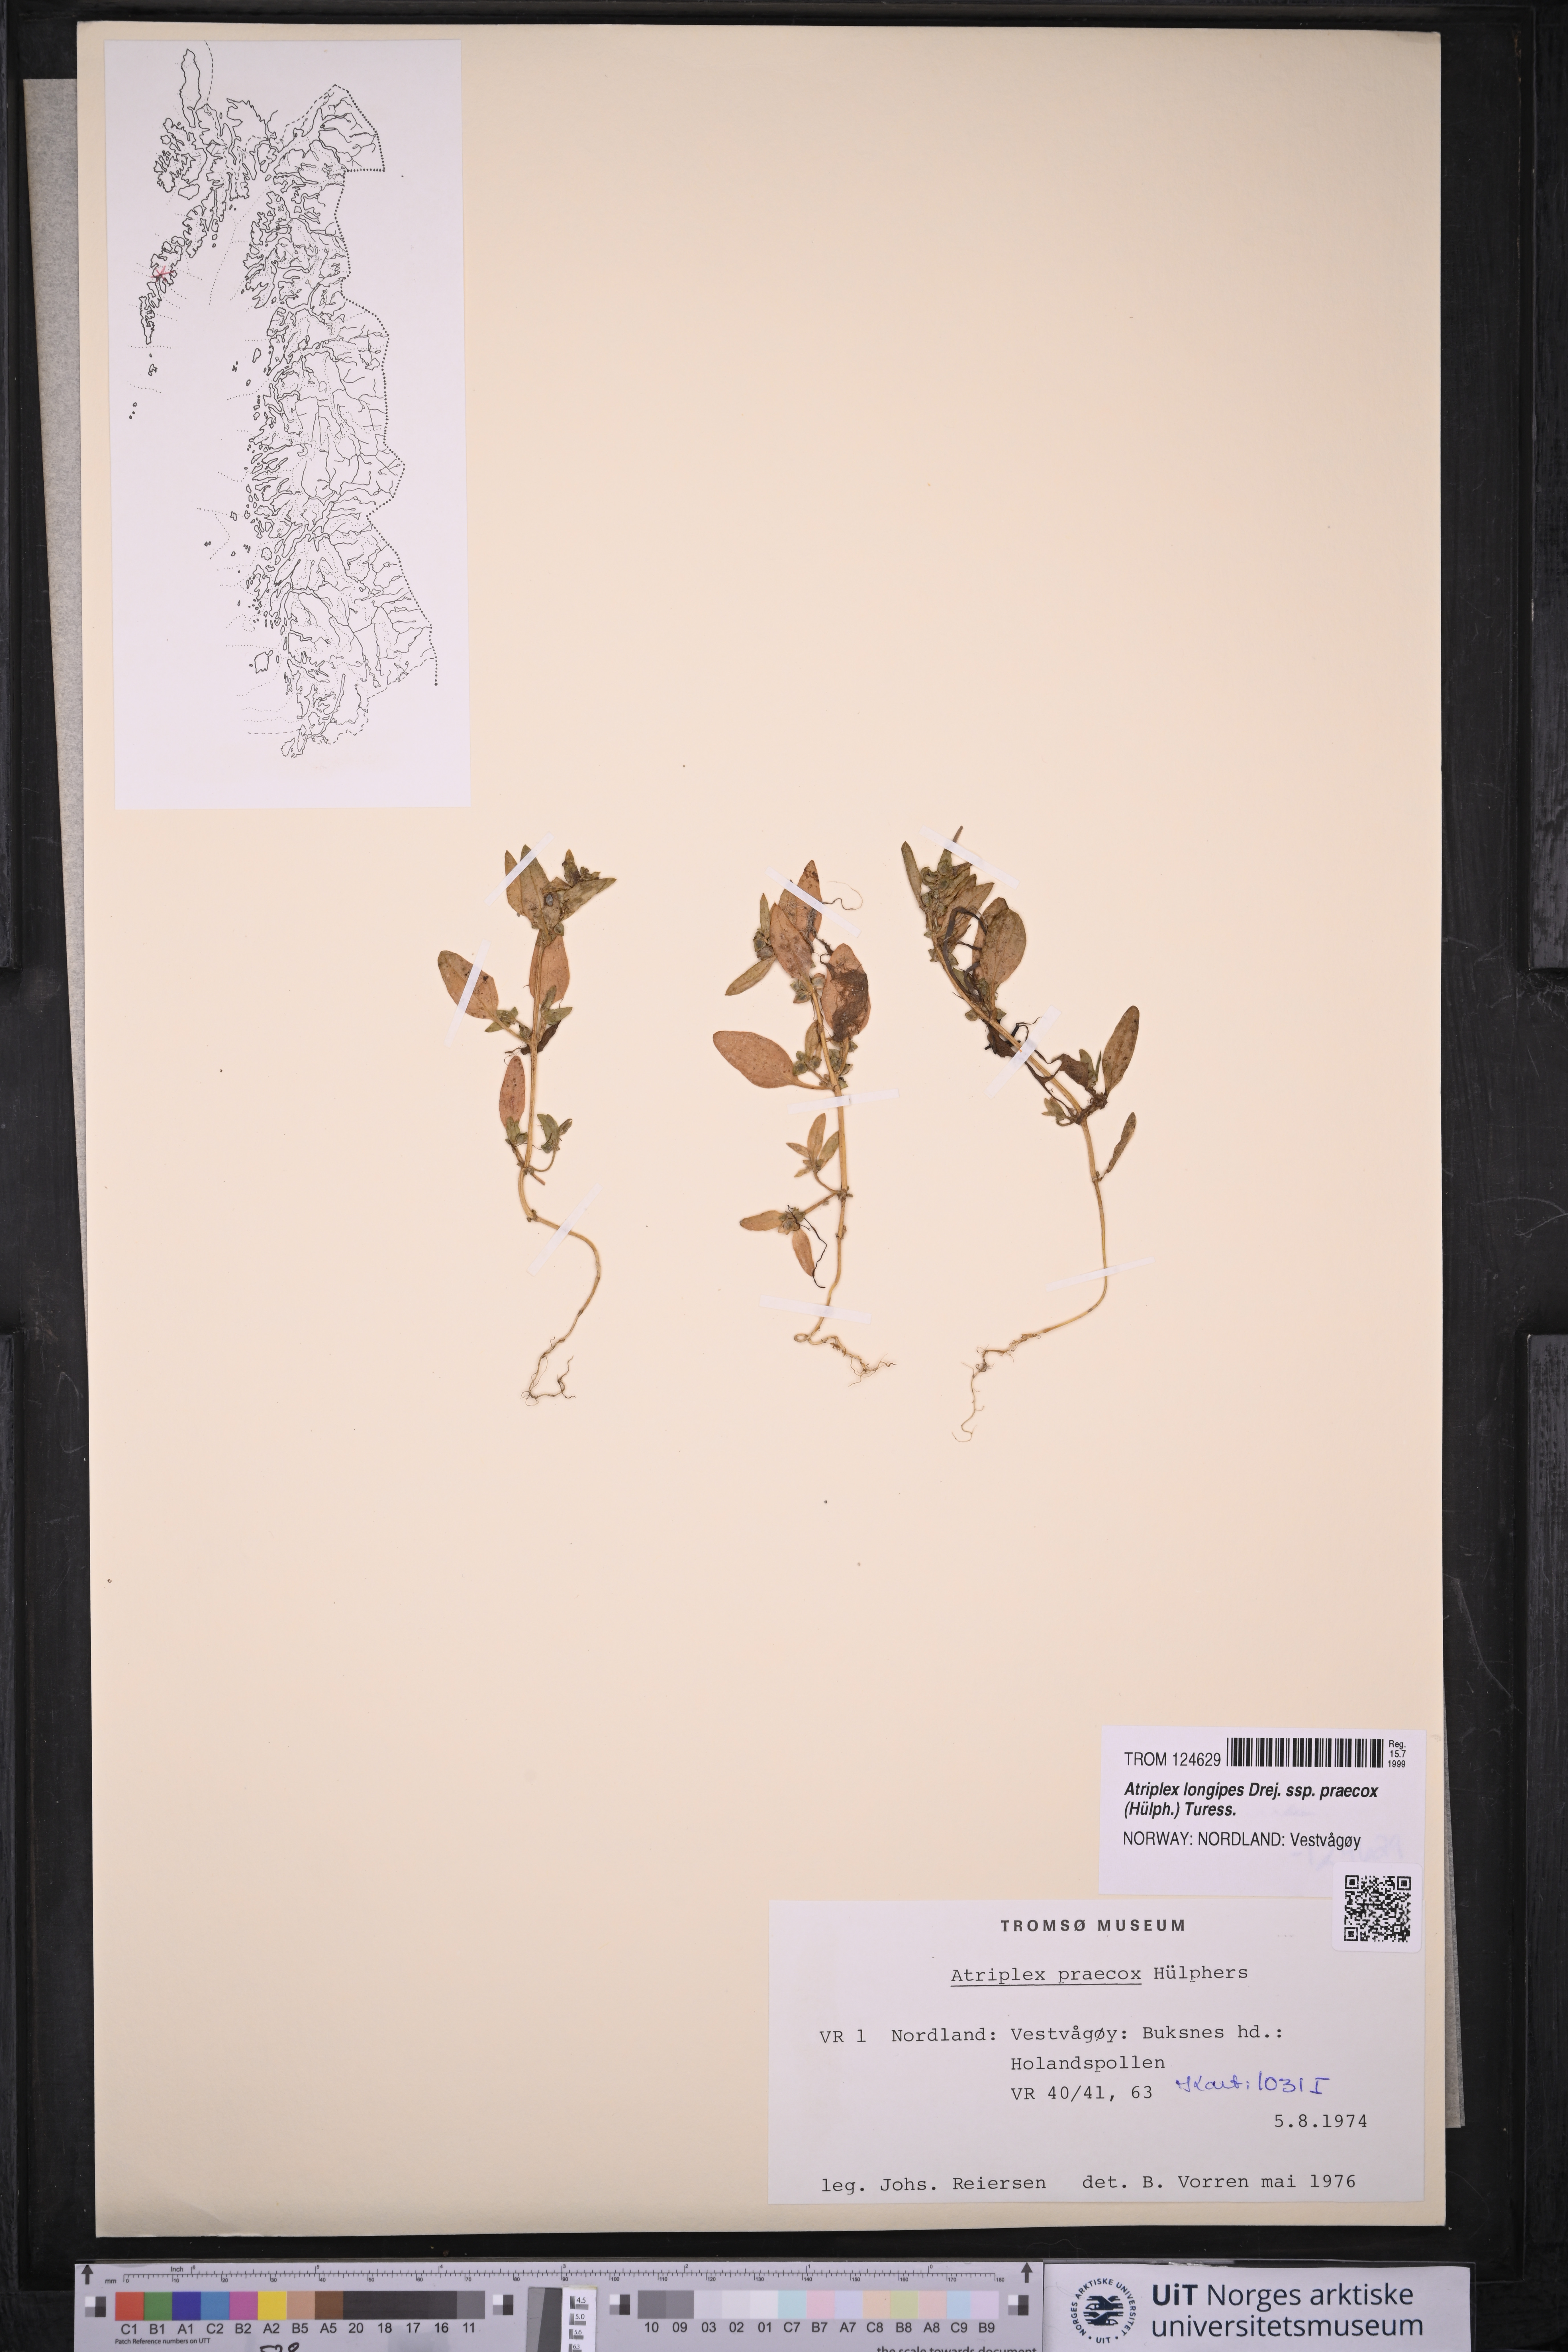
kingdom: Plantae
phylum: Tracheophyta
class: Magnoliopsida
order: Caryophyllales
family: Amaranthaceae
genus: Atriplex
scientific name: Atriplex praecox
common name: Early orache
